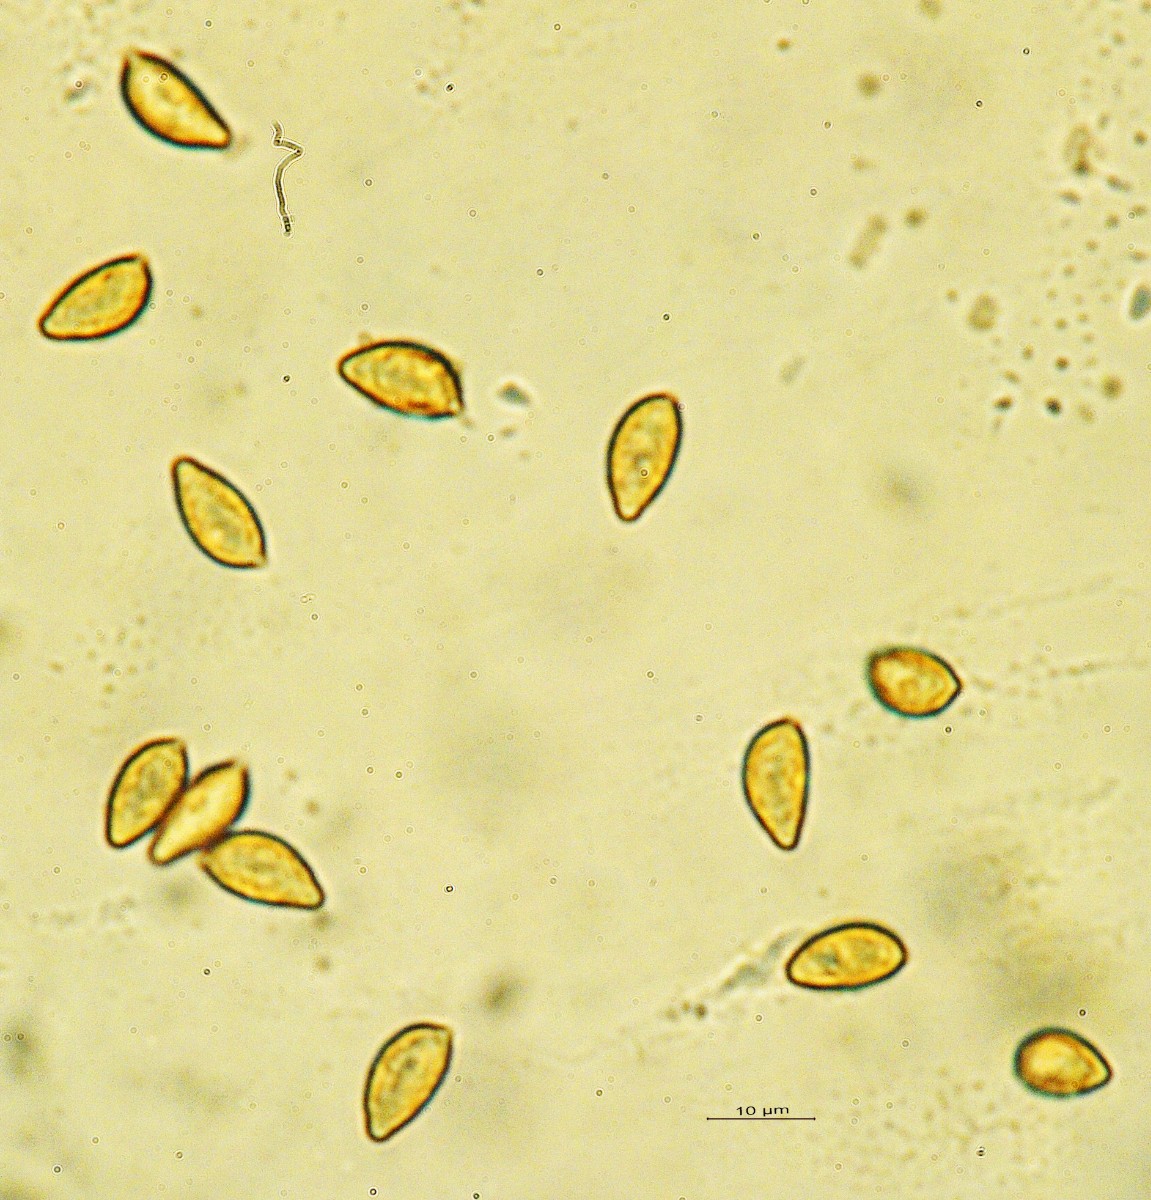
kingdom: Fungi
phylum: Basidiomycota
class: Agaricomycetes
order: Agaricales
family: Hymenogastraceae
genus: Hebeloma
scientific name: Hebeloma
